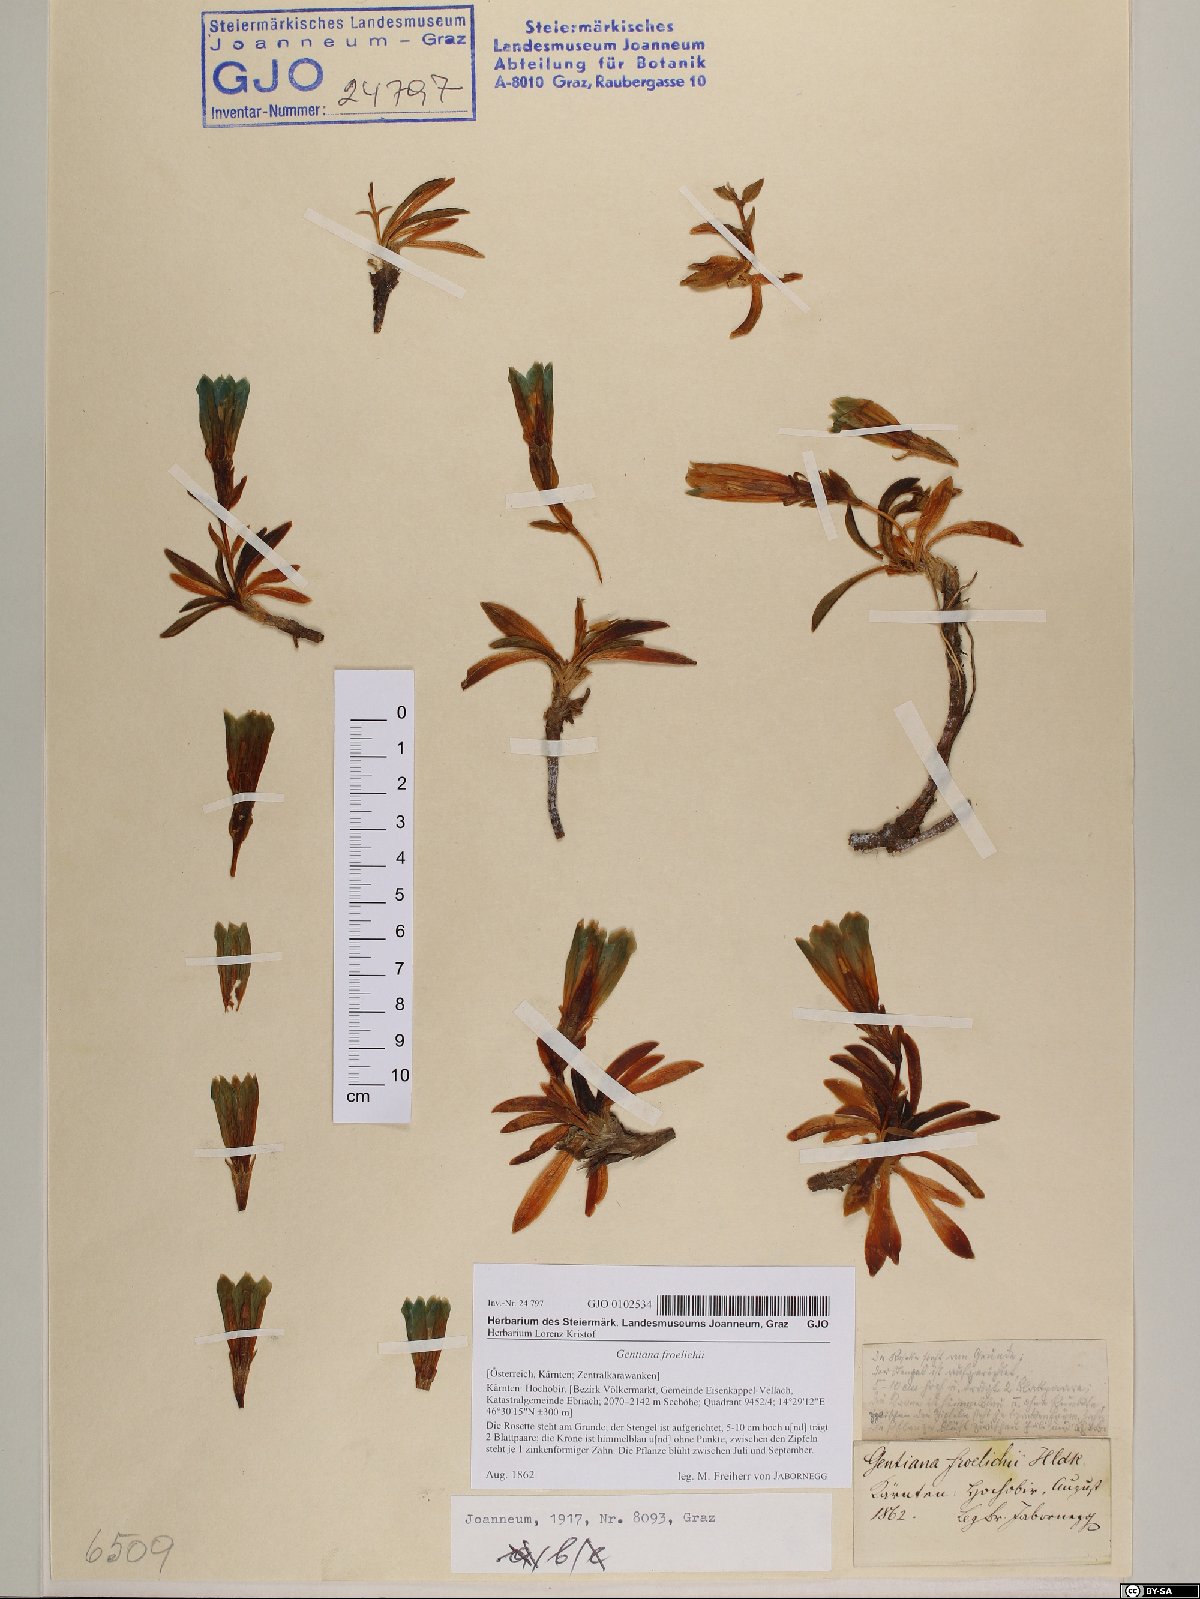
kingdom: Plantae
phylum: Tracheophyta
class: Magnoliopsida
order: Gentianales
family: Gentianaceae
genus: Gentiana
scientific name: Gentiana froelichii
